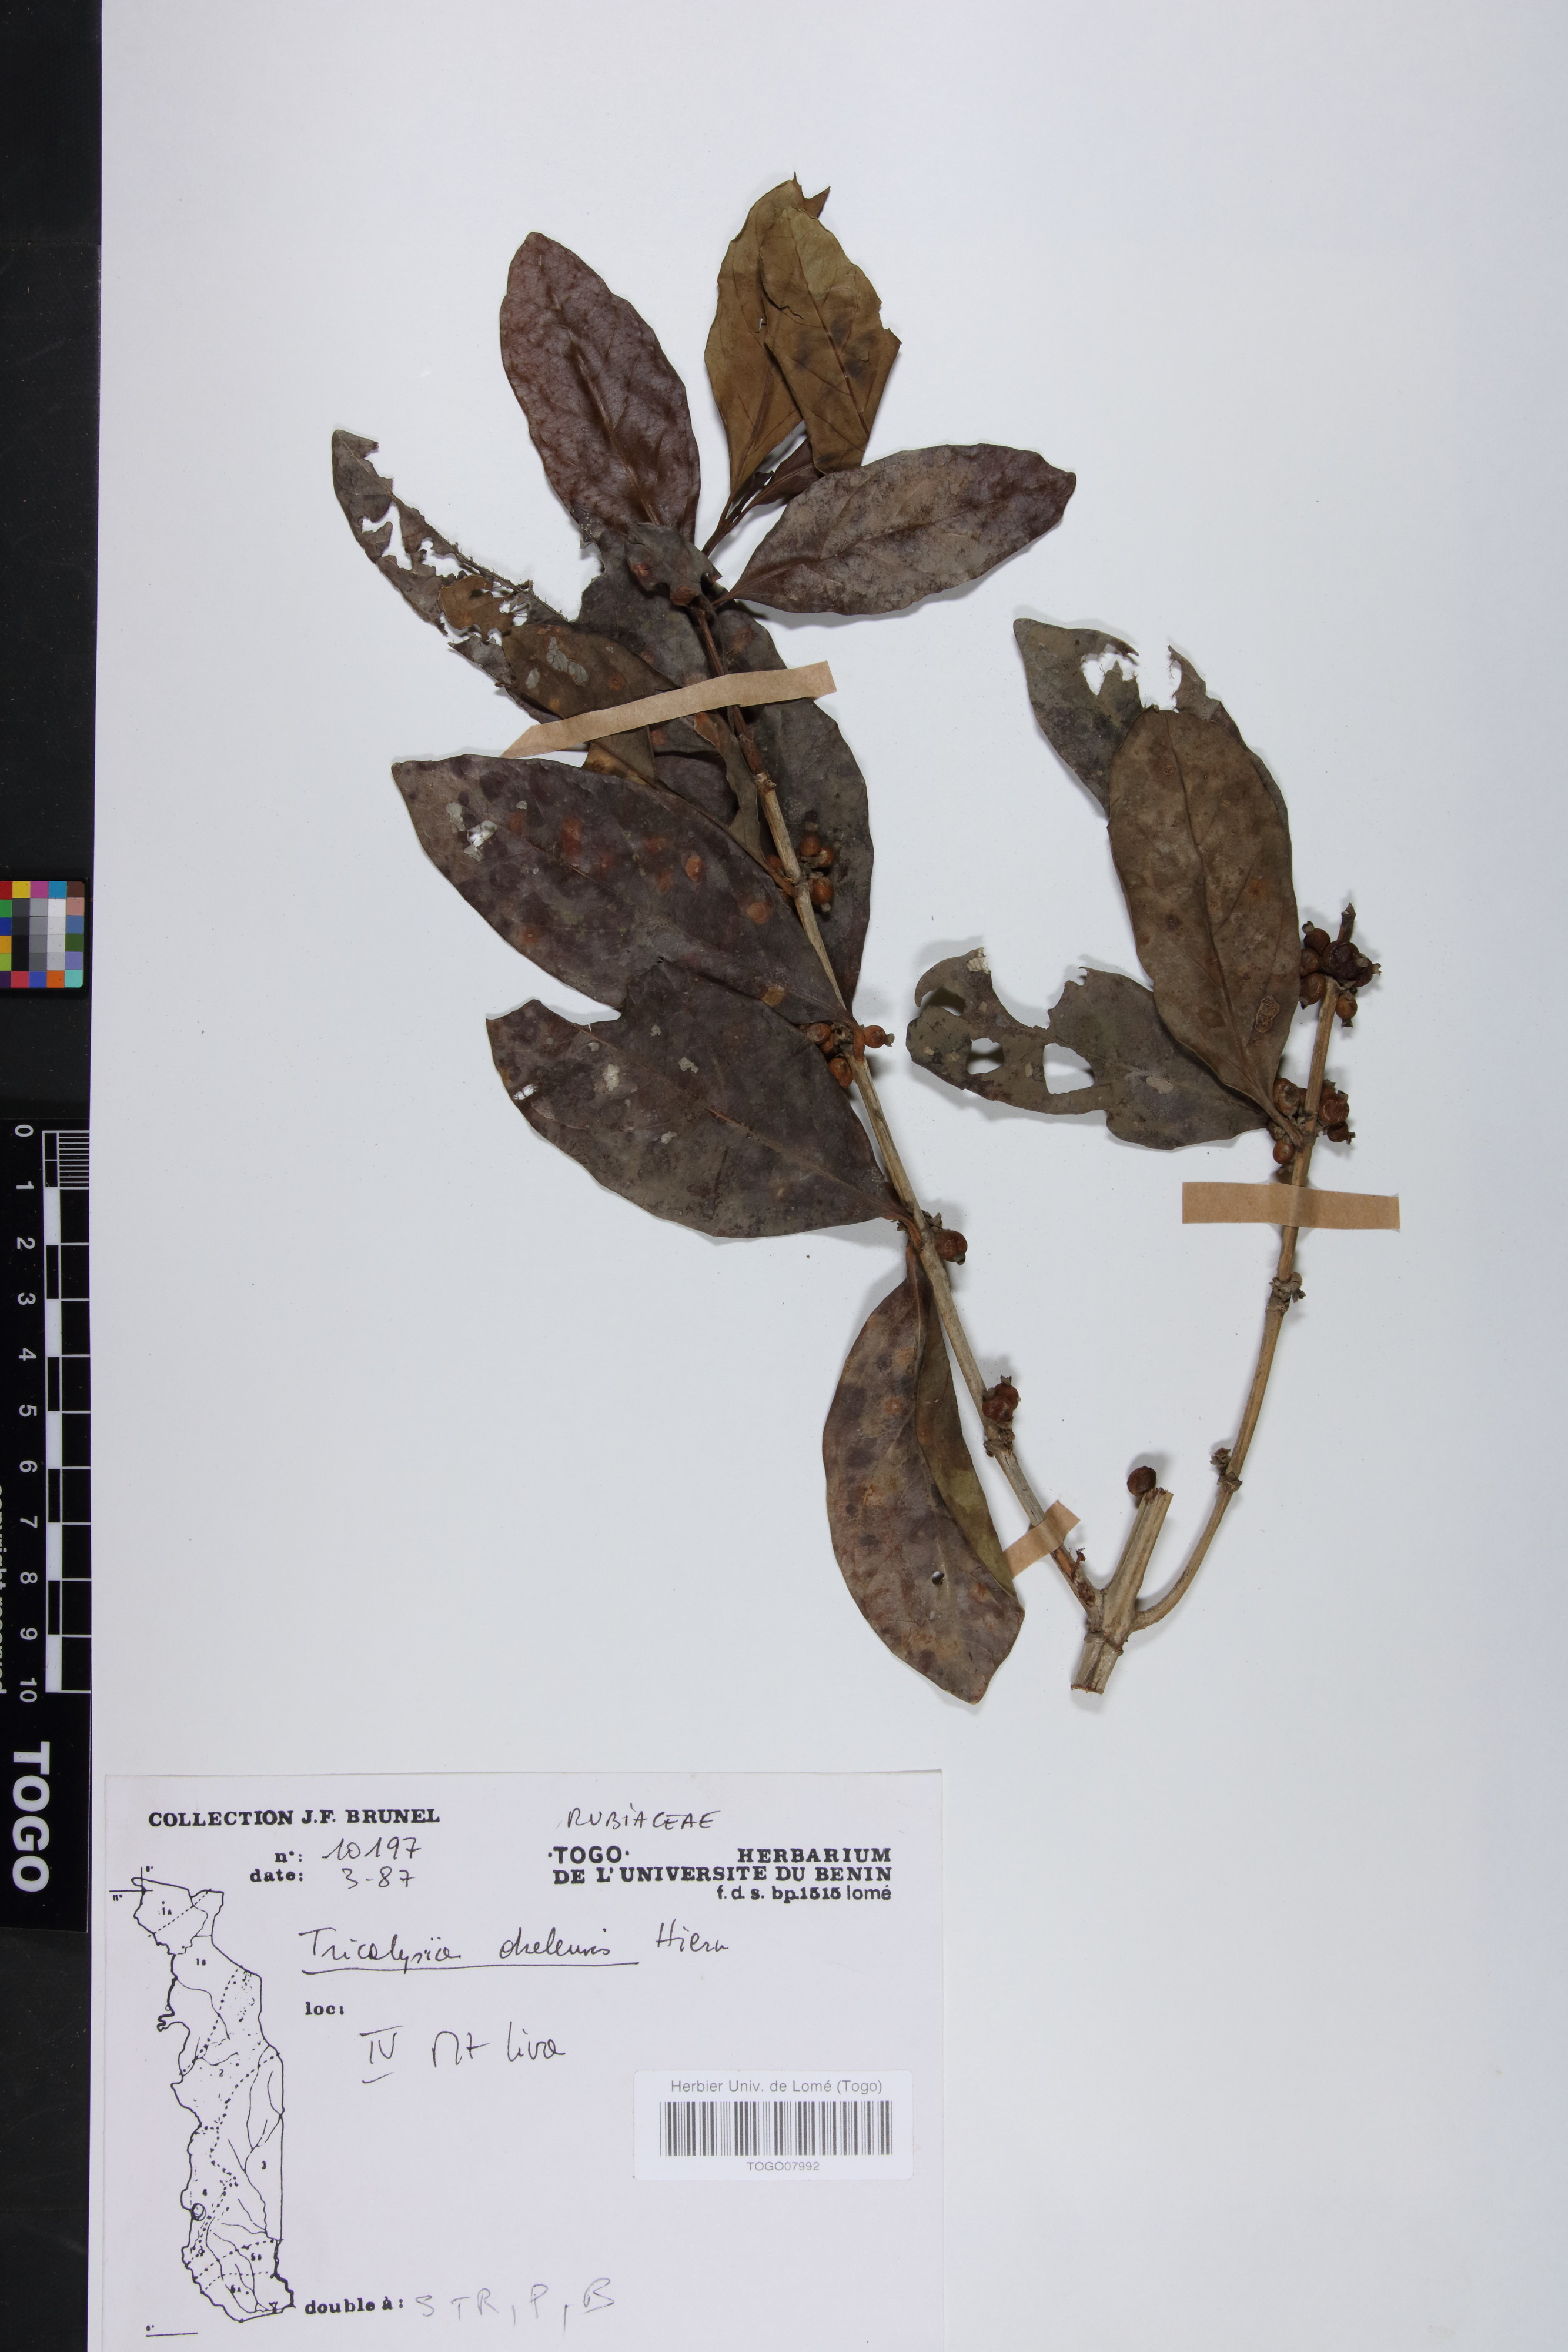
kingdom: Plantae
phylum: Tracheophyta
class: Magnoliopsida
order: Gentianales
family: Rubiaceae
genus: Tricalysia
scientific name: Tricalysia okelensis
